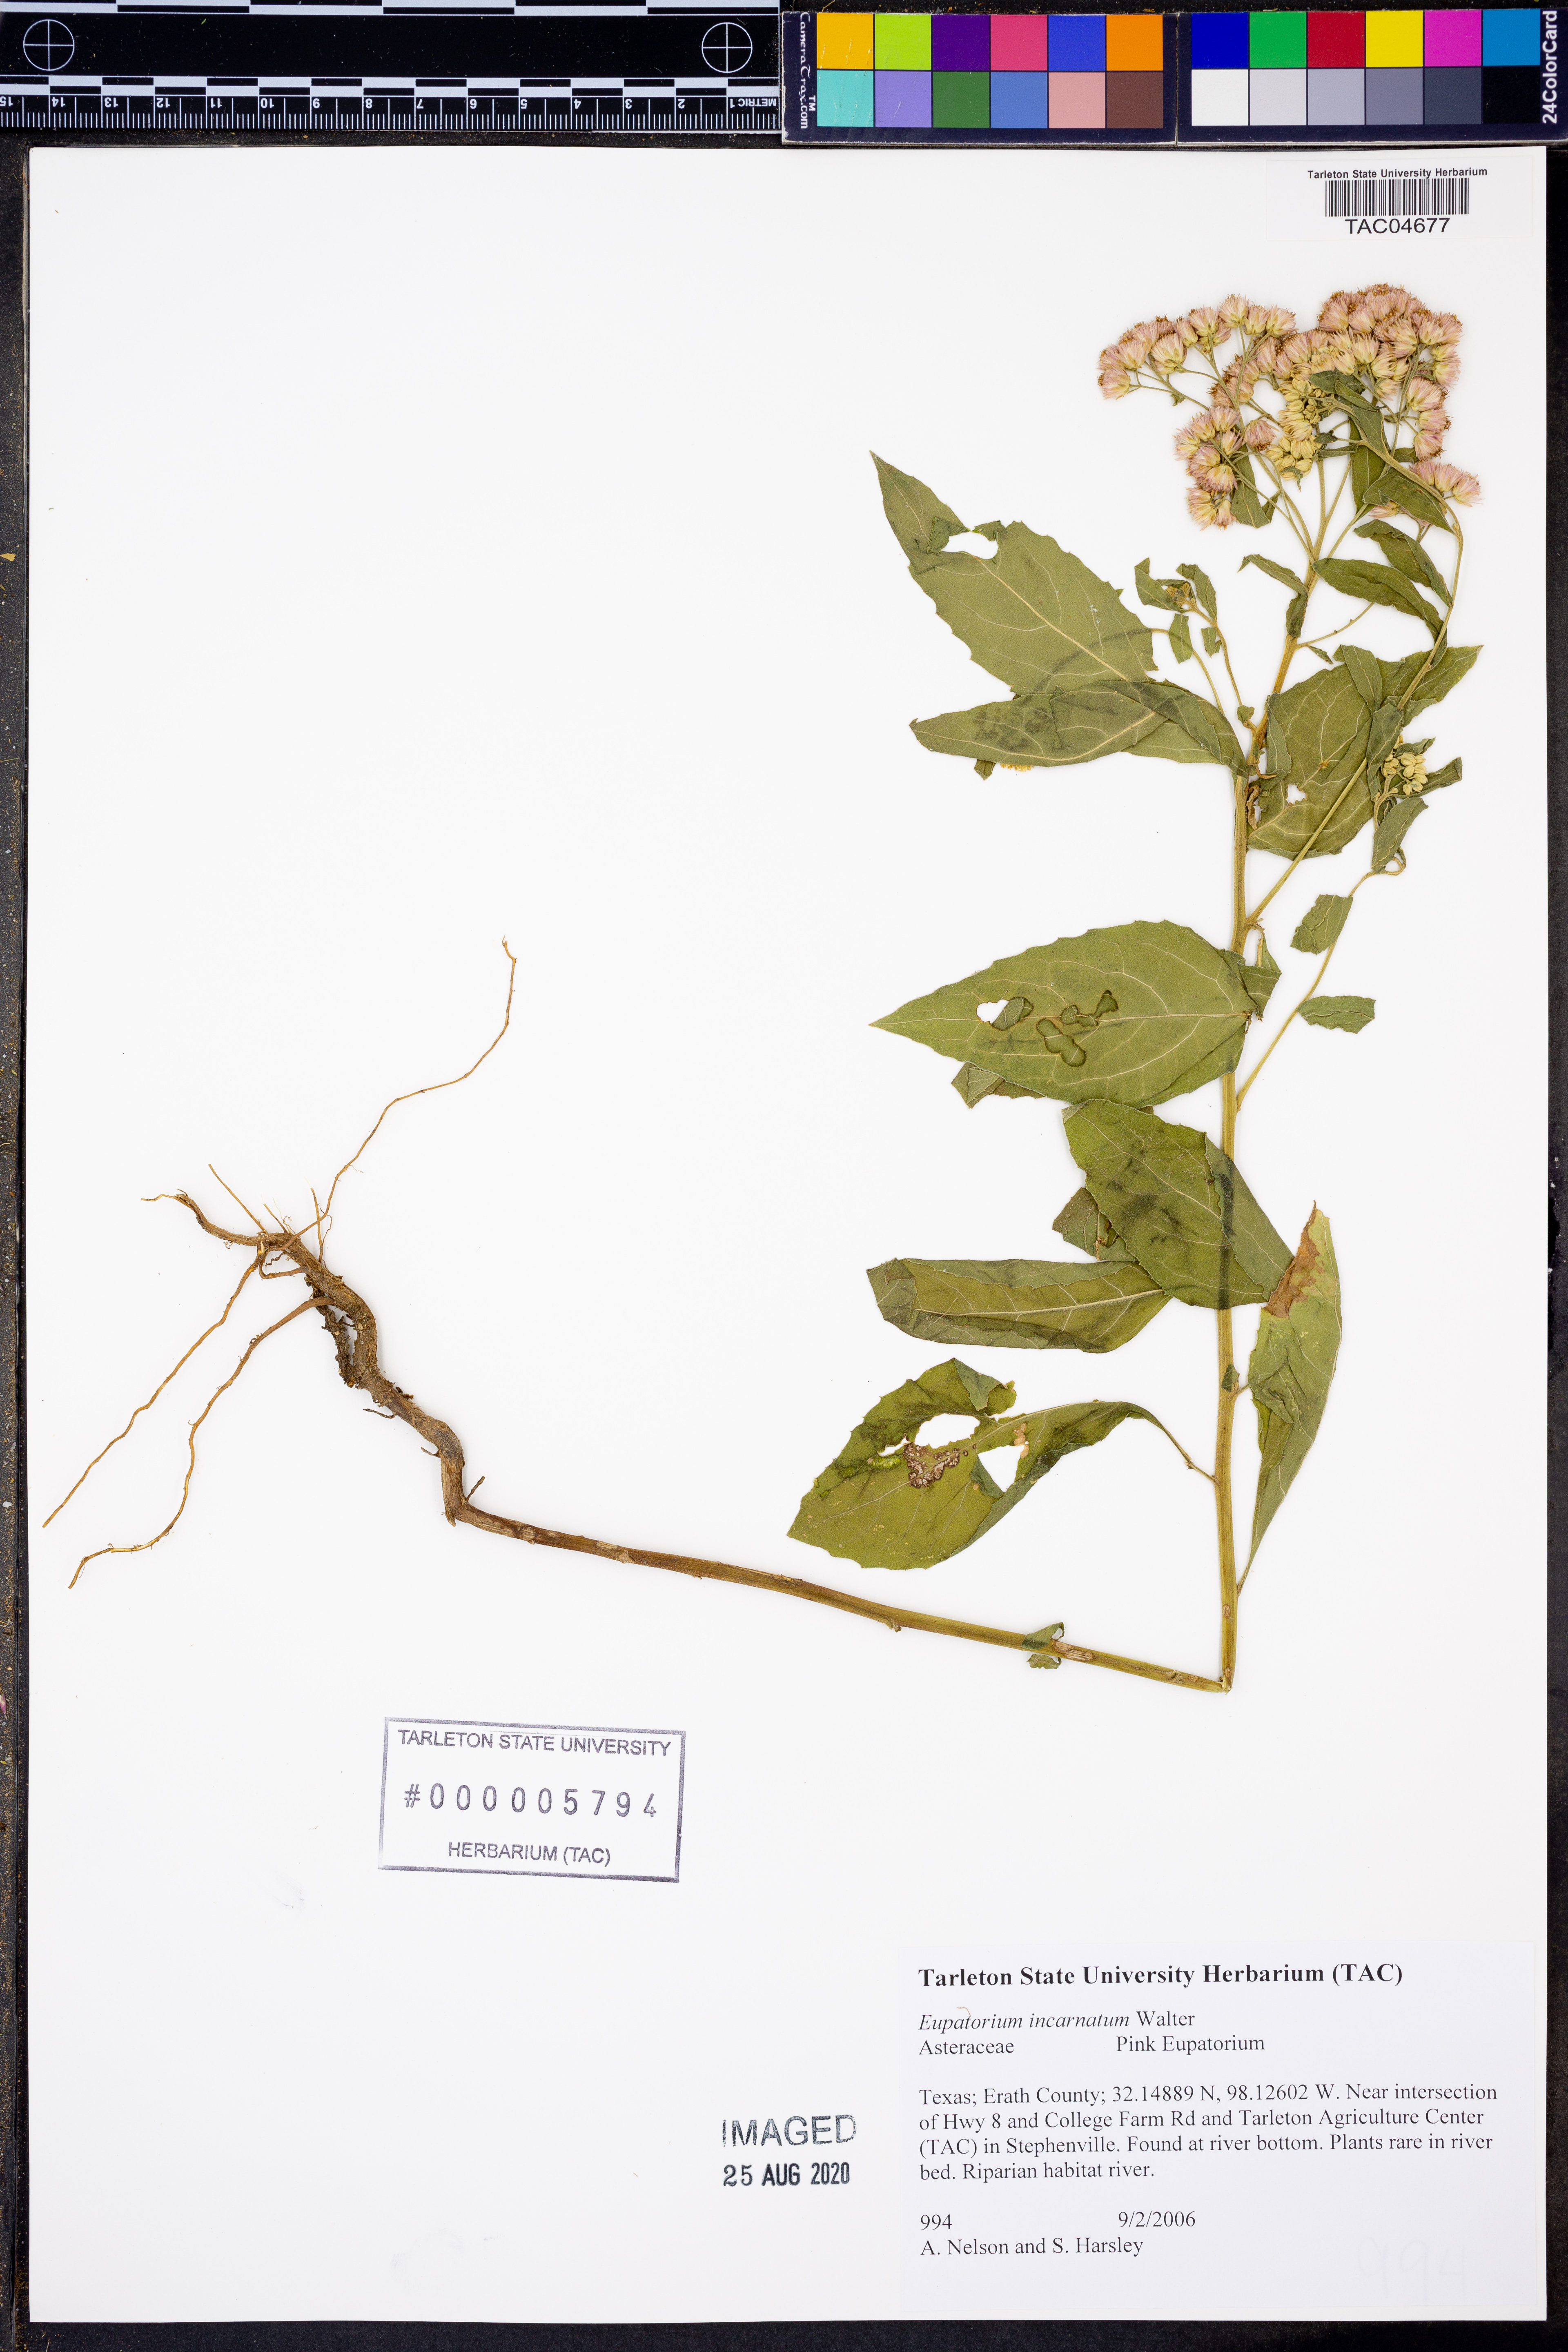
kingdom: Plantae
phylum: Tracheophyta
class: Magnoliopsida
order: Asterales
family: Asteraceae
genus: Fleischmannia
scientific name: Fleischmannia incarnata
